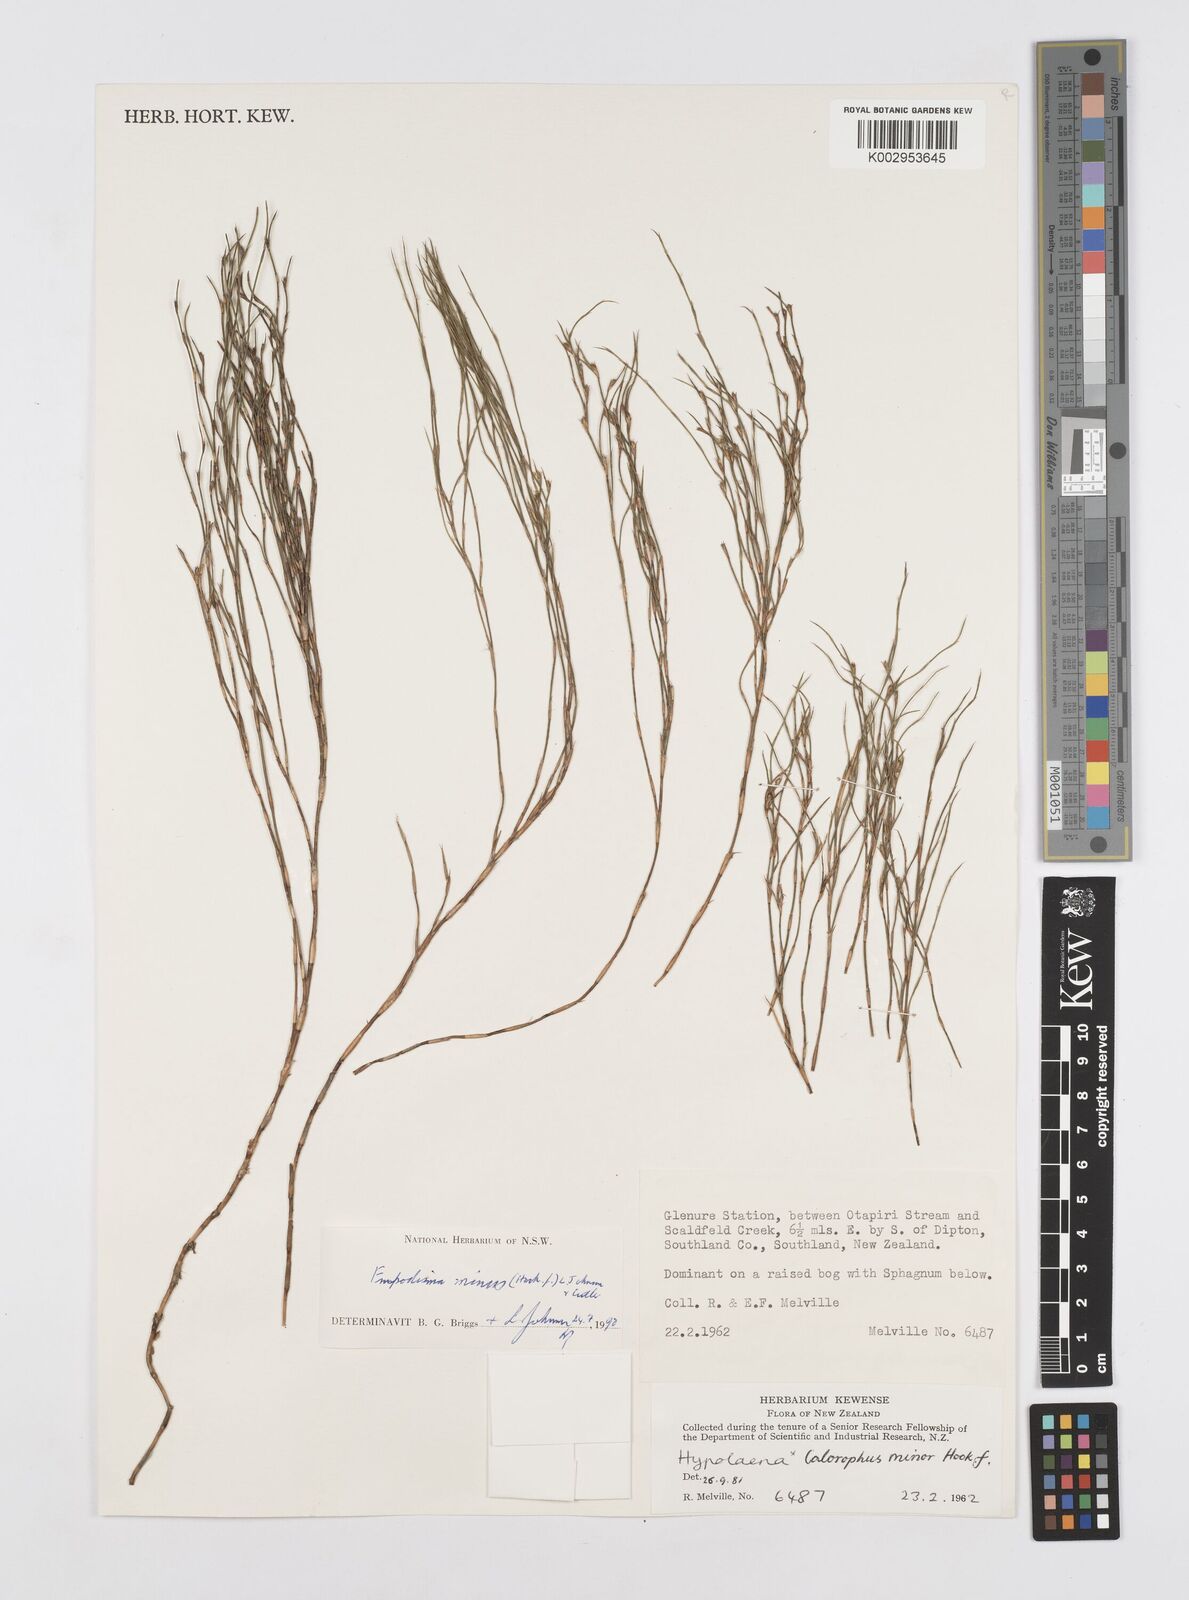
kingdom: Plantae
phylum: Tracheophyta
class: Liliopsida
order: Poales
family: Restionaceae
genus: Empodisma
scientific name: Empodisma minus
